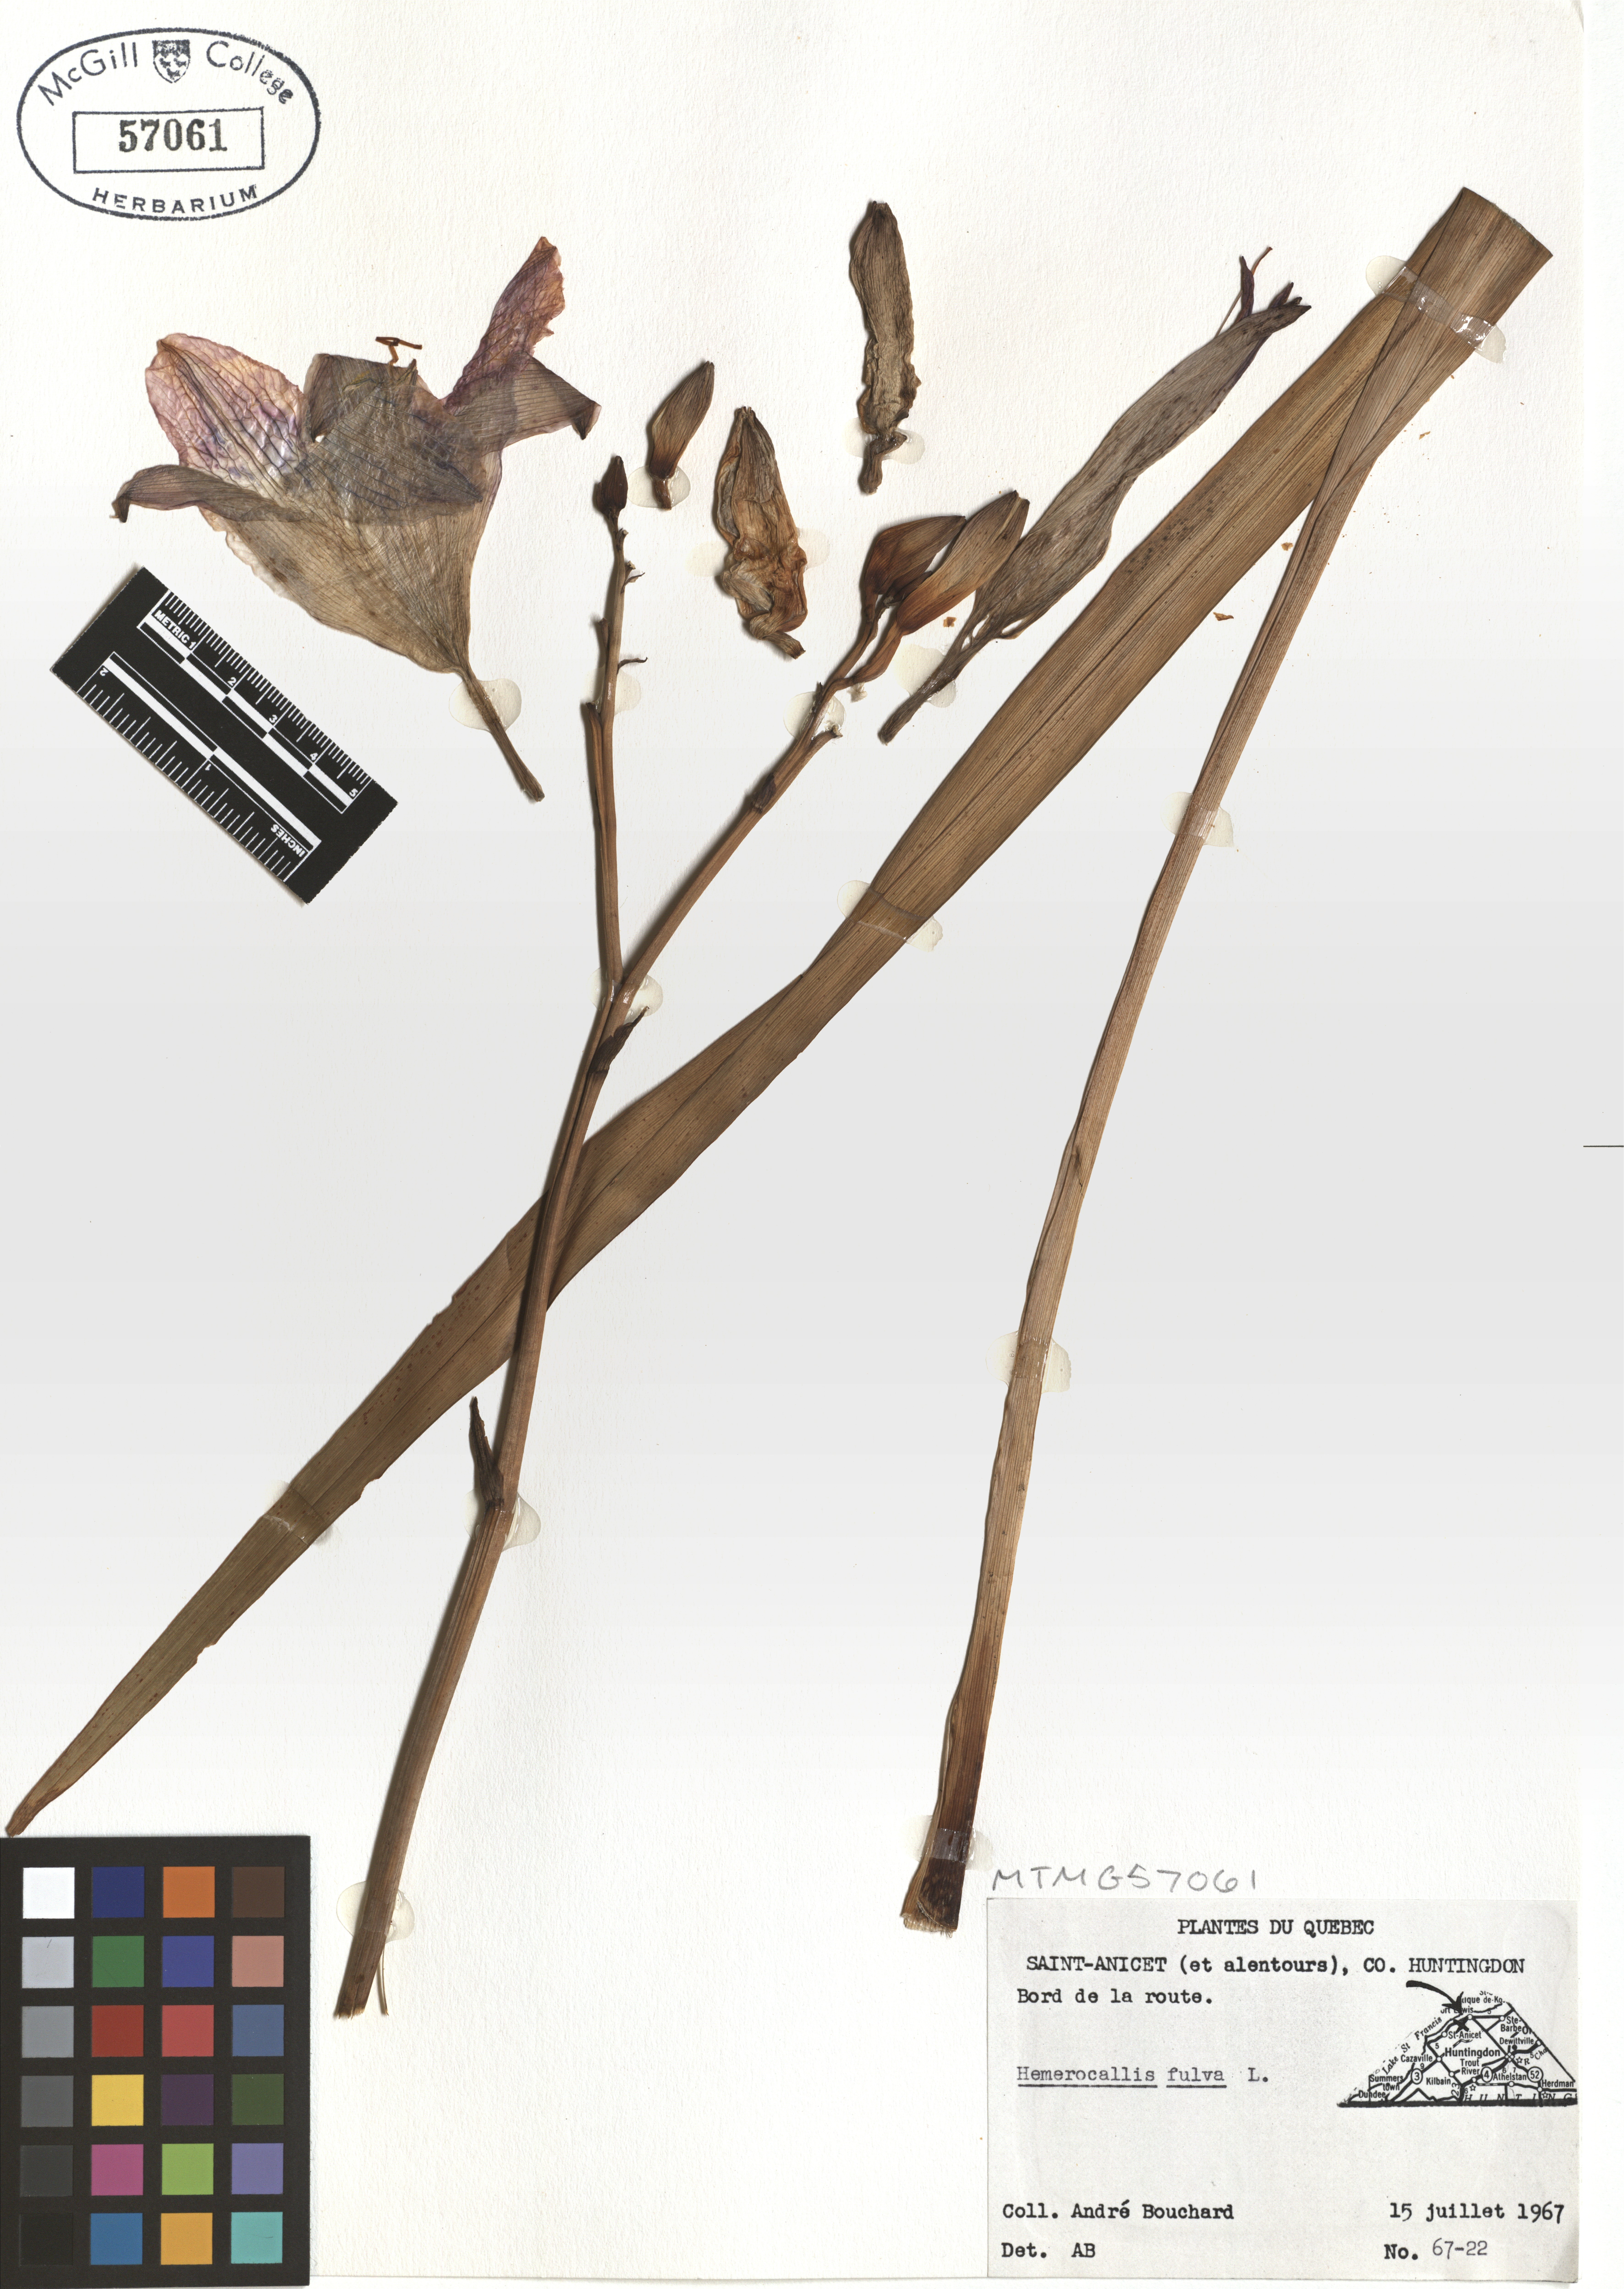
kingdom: Plantae
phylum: Tracheophyta
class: Liliopsida
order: Asparagales
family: Asphodelaceae
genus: Hemerocallis
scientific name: Hemerocallis fulva
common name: Orange day-lily
